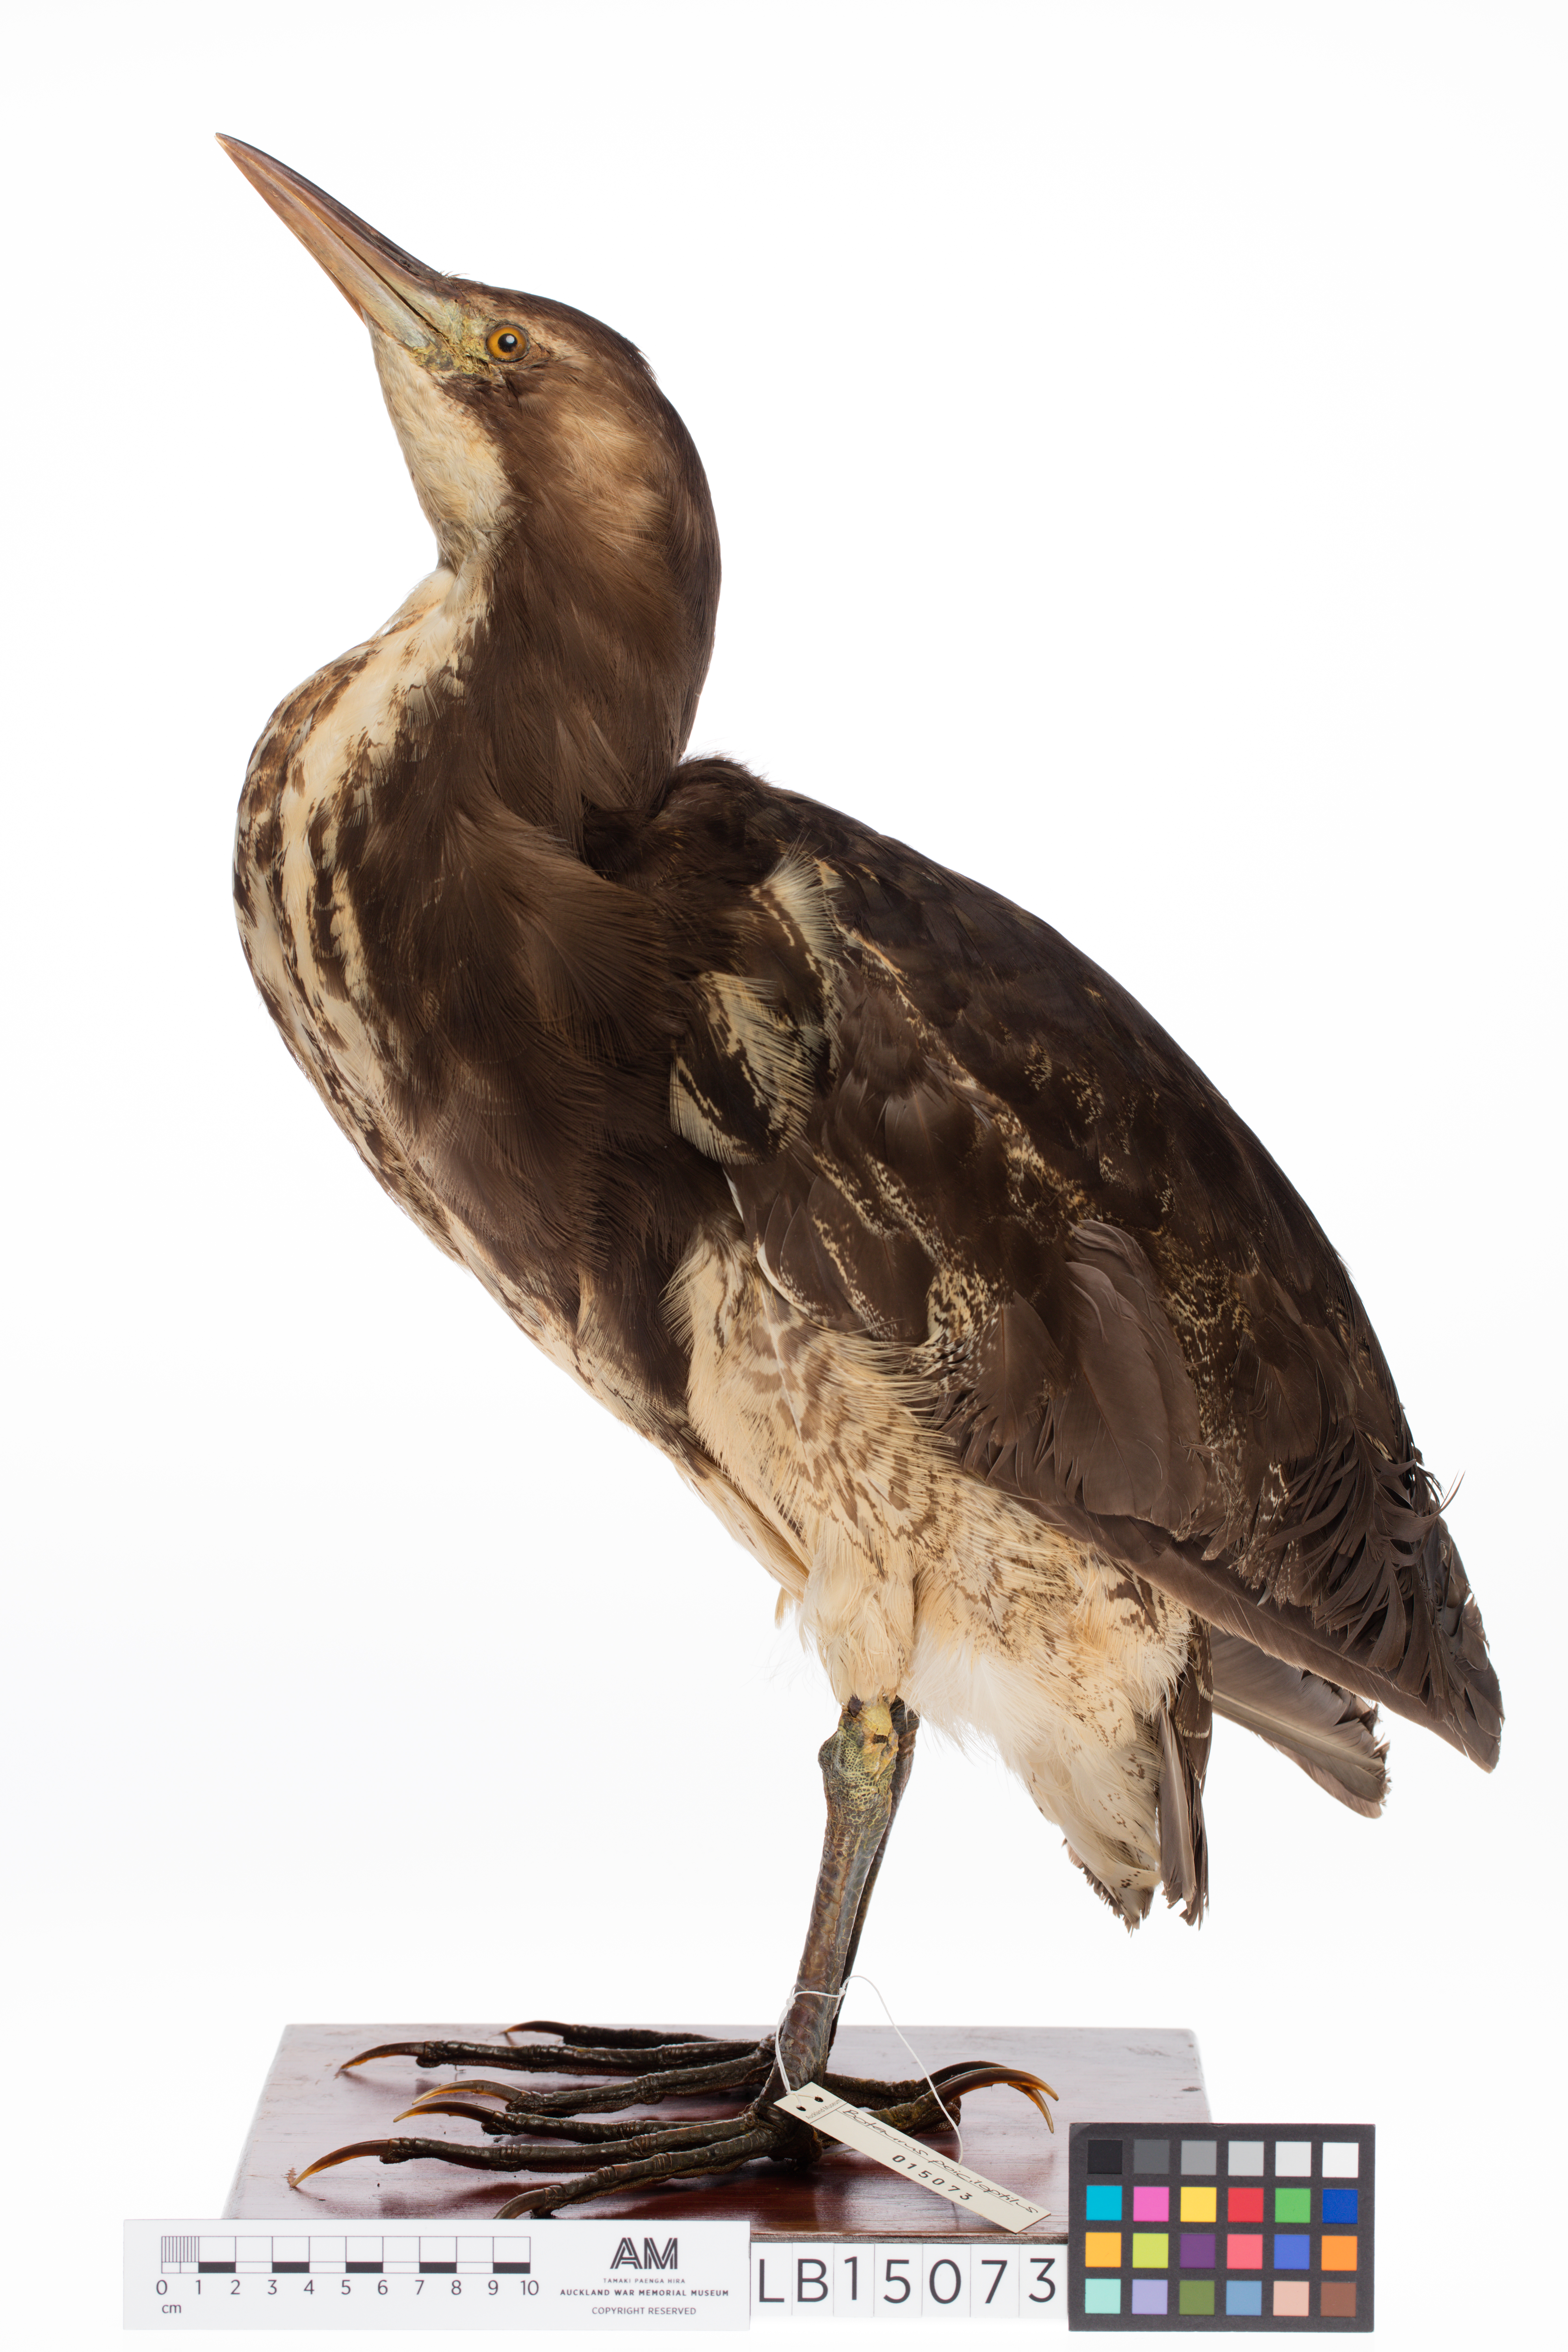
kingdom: Animalia
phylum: Chordata
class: Aves
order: Pelecaniformes
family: Ardeidae
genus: Botaurus
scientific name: Botaurus poiciloptilus
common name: Australasian bittern
